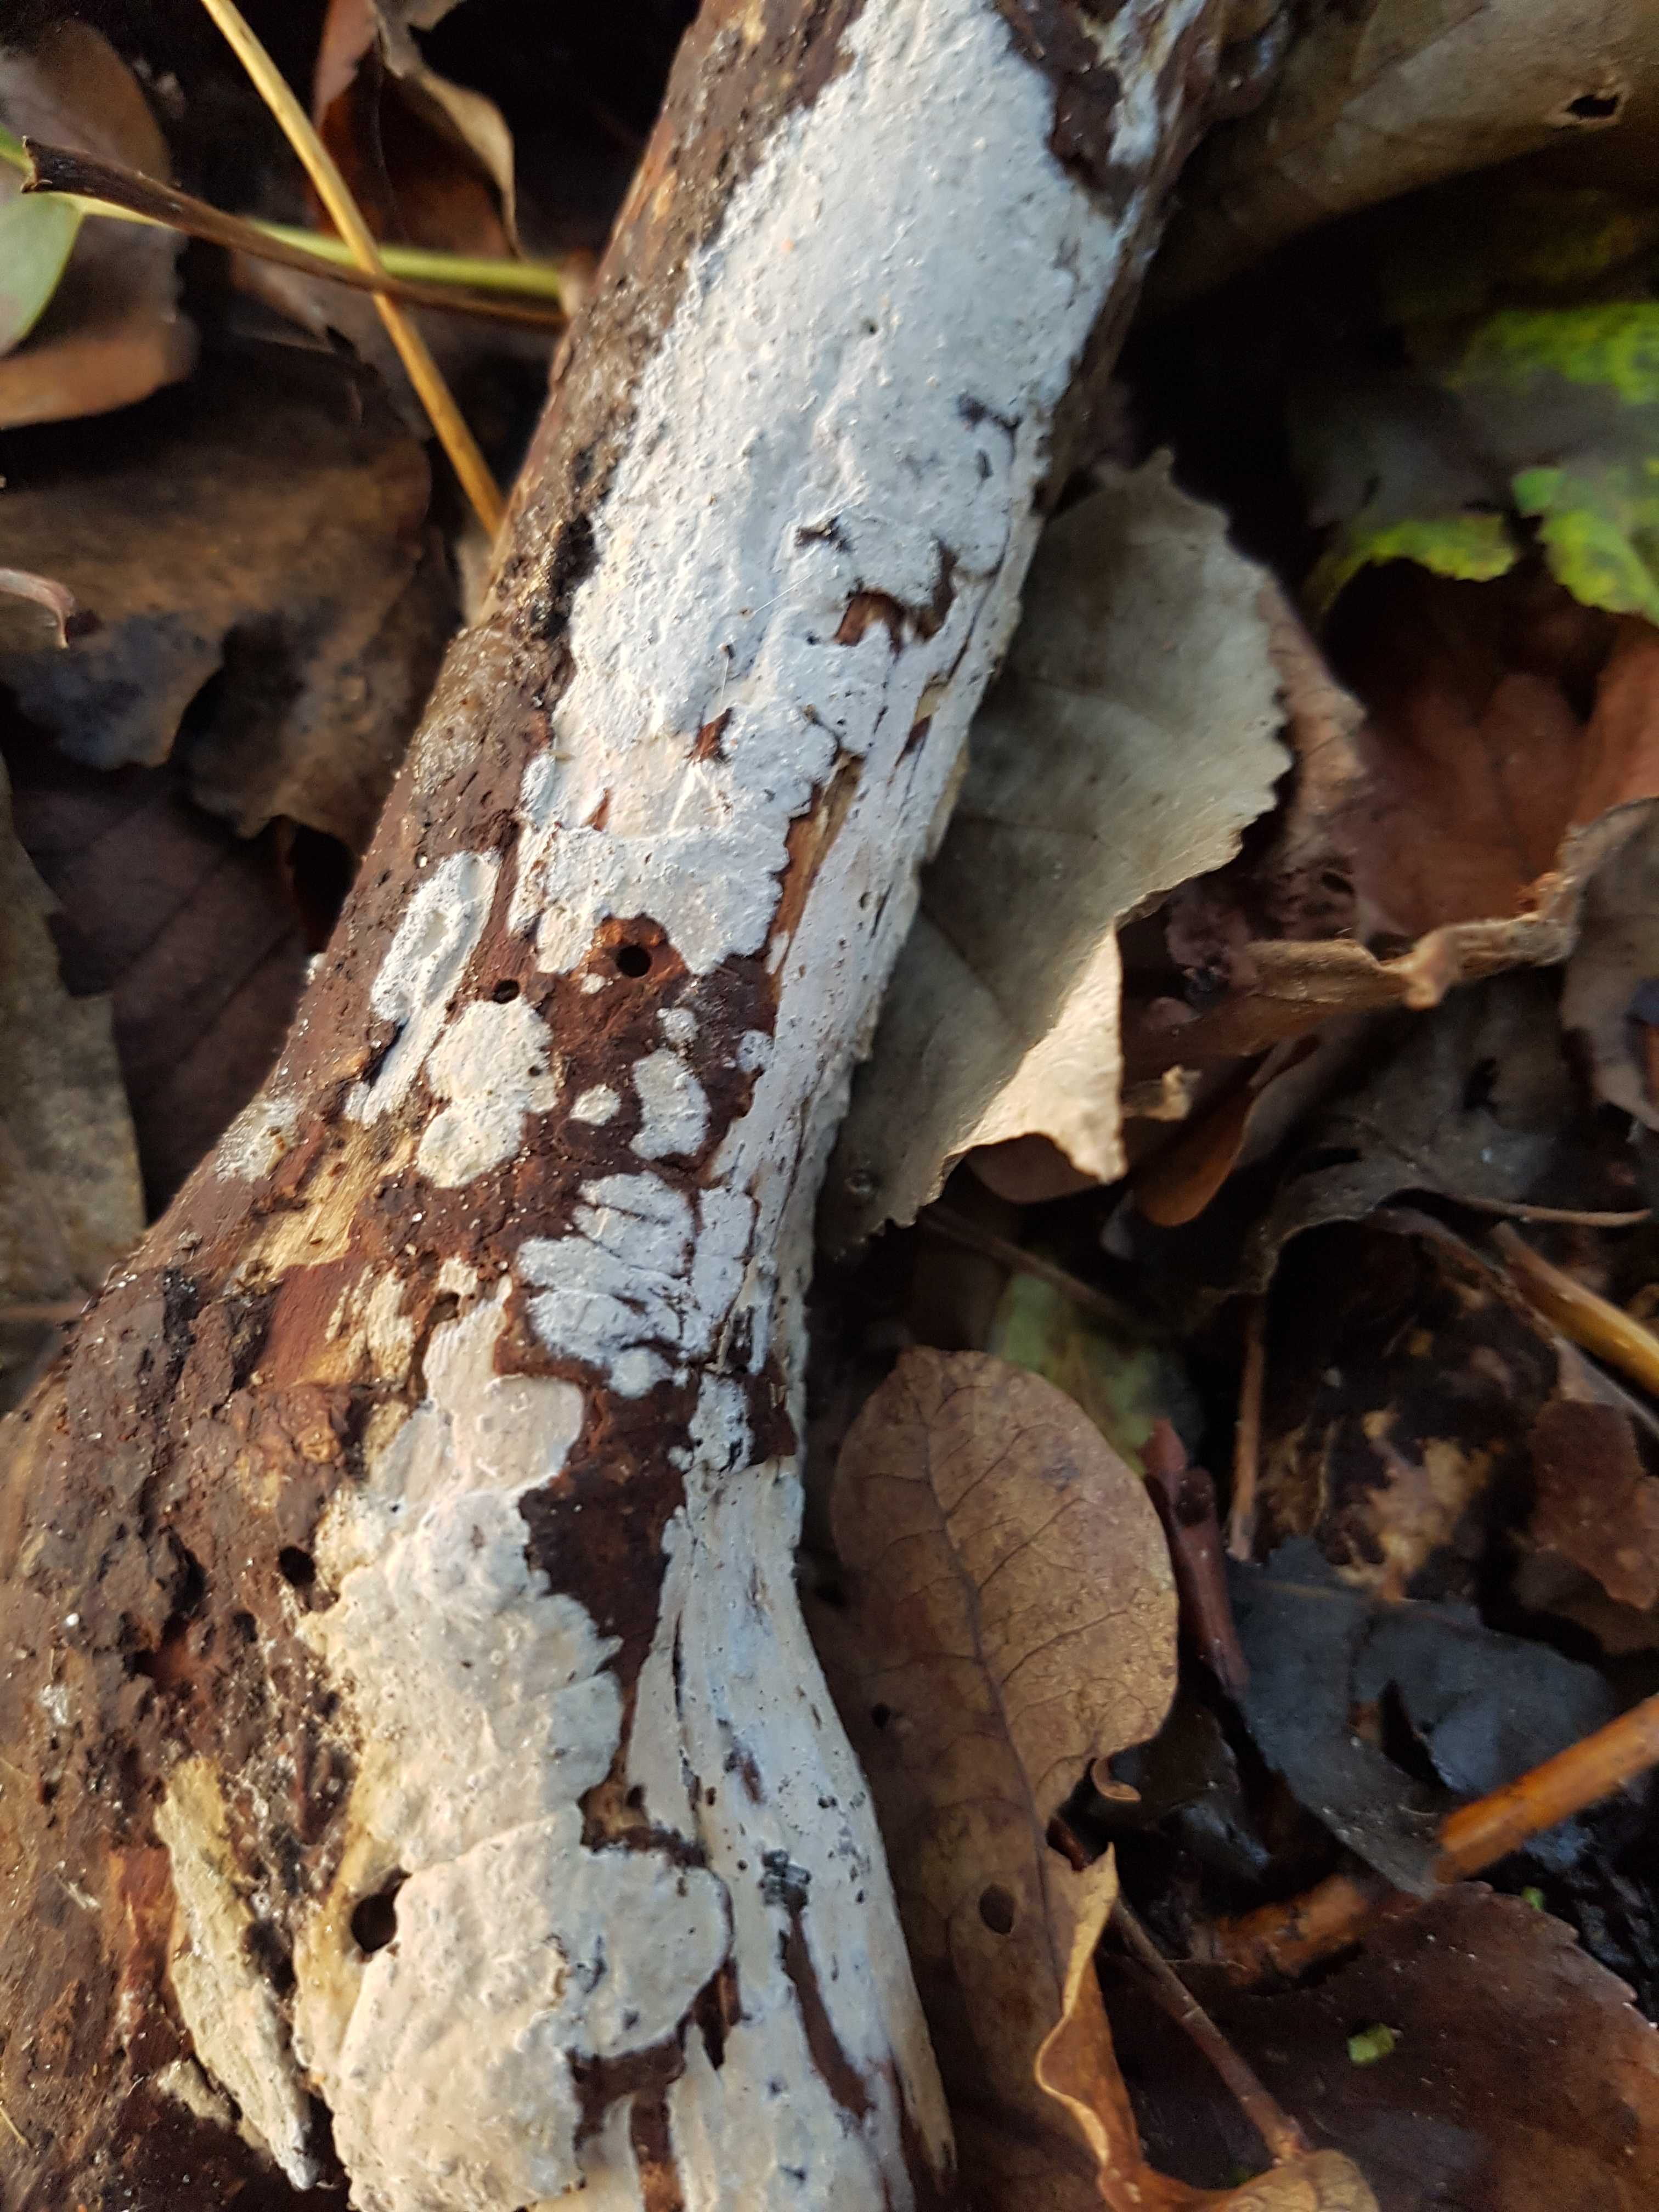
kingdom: Fungi
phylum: Basidiomycota
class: Agaricomycetes
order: Corticiales
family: Corticiaceae
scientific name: Corticiaceae
